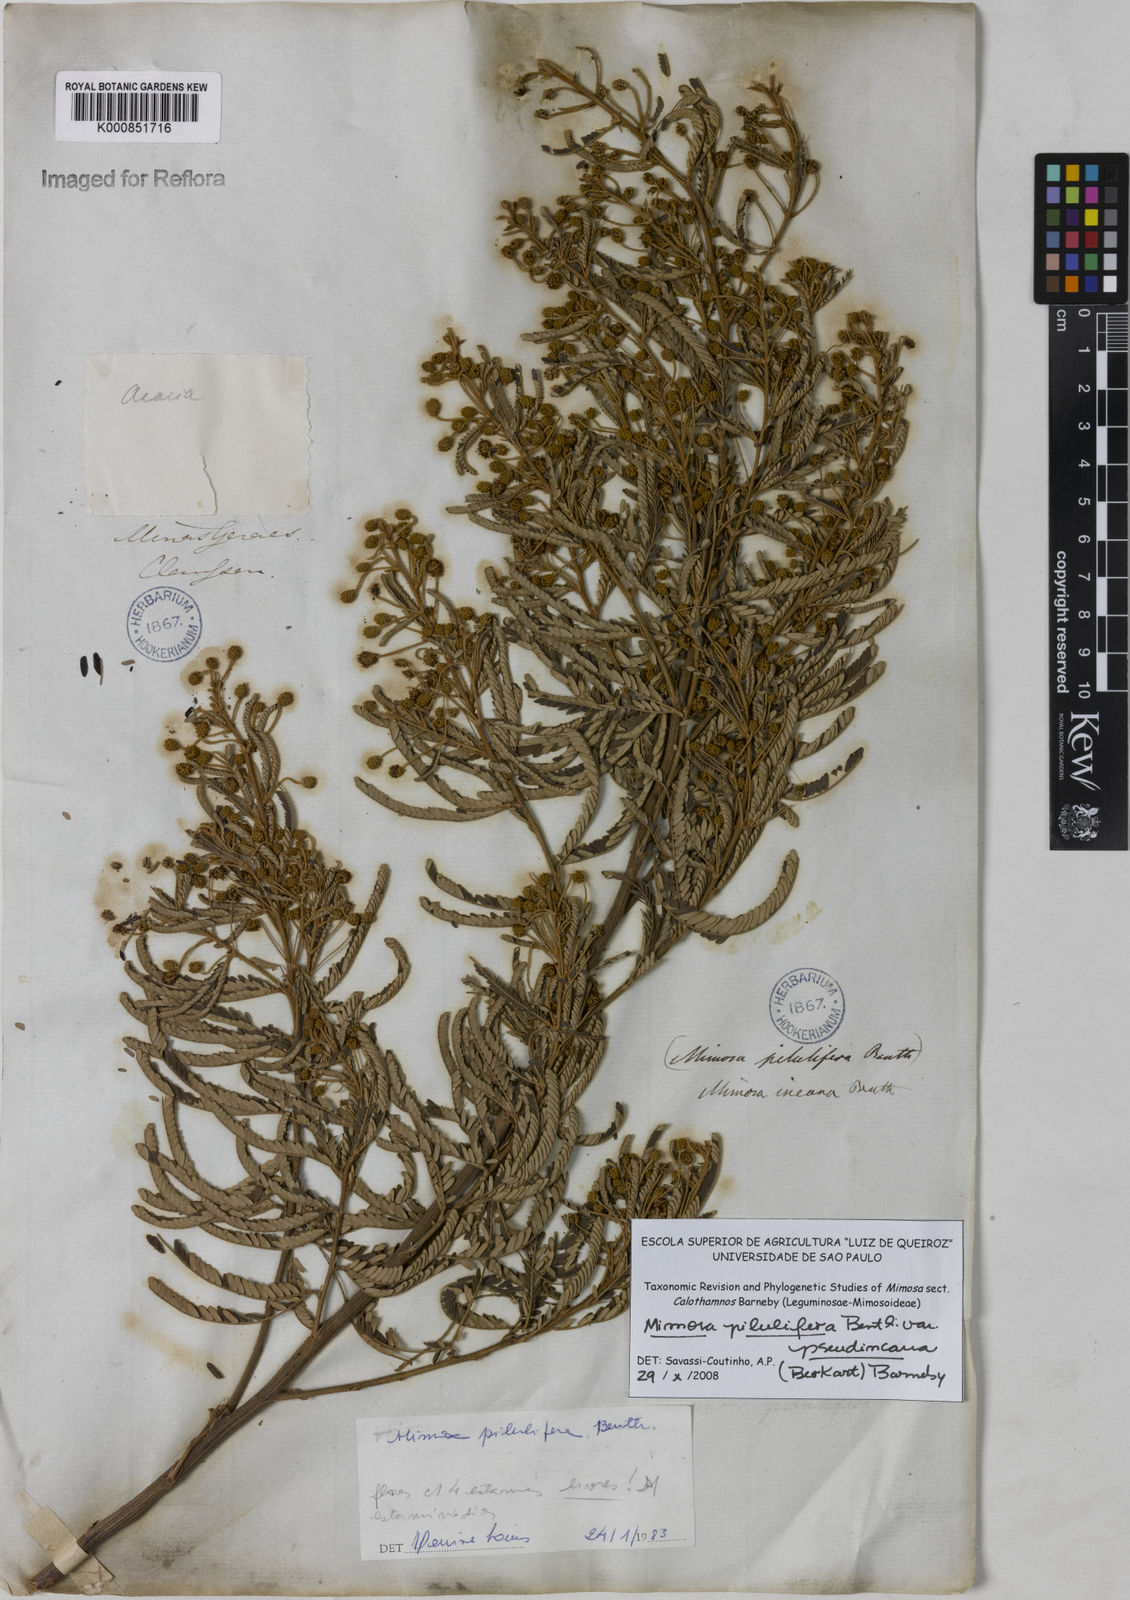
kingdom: Plantae
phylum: Tracheophyta
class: Magnoliopsida
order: Fabales
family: Fabaceae
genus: Mimosa
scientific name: Mimosa pilulifera
